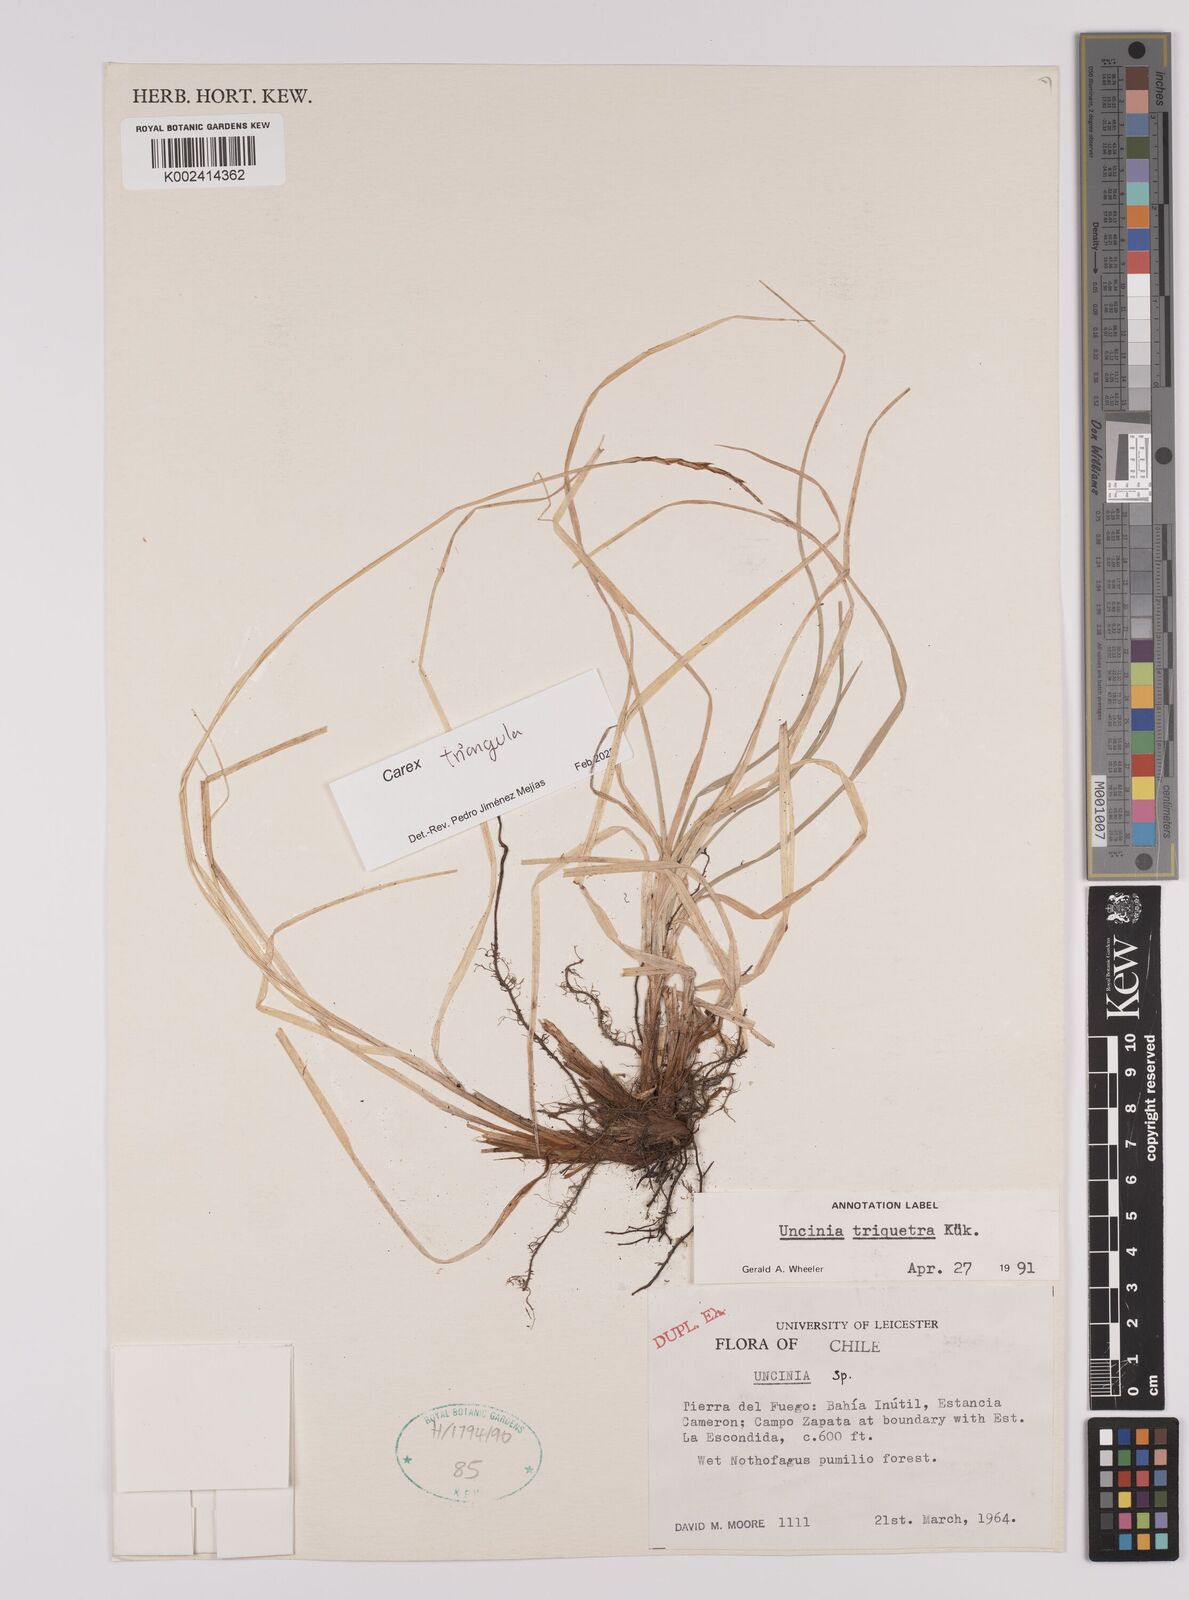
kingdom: Plantae
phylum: Tracheophyta
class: Liliopsida
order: Poales
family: Cyperaceae
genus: Carex
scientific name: Carex triangula
